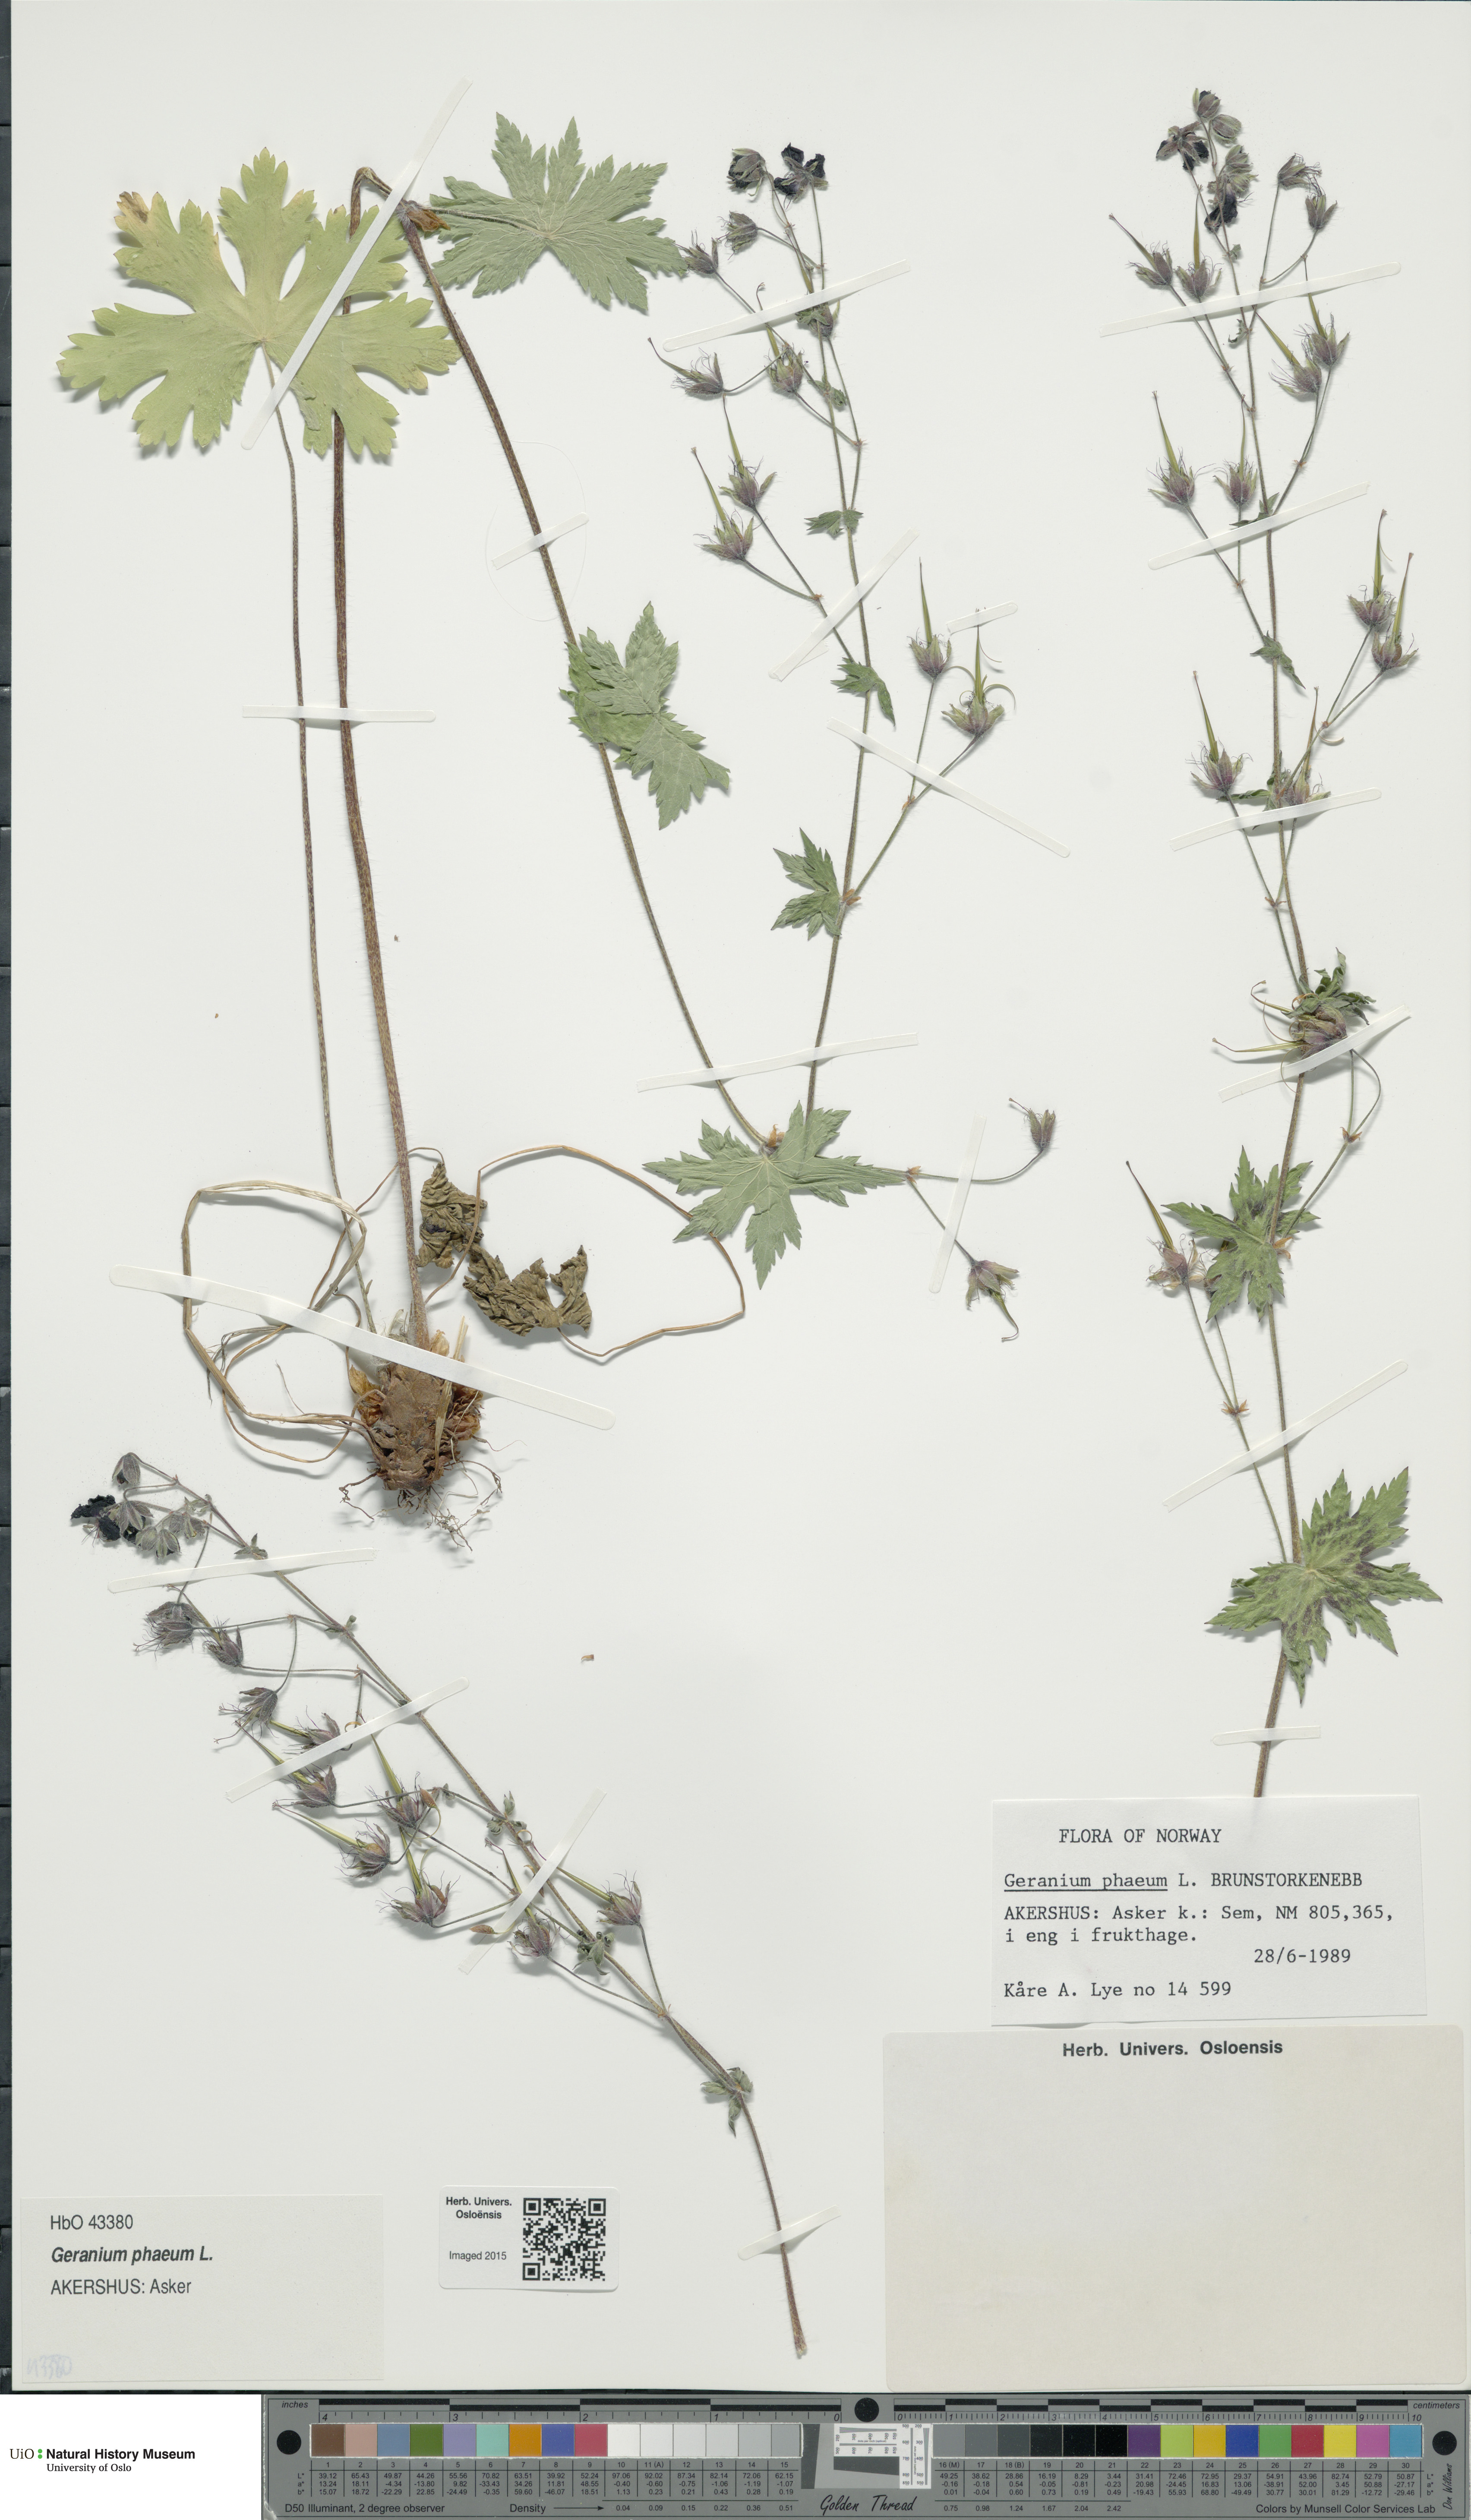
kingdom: Plantae
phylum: Tracheophyta
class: Magnoliopsida
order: Geraniales
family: Geraniaceae
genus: Geranium
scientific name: Geranium phaeum
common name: Dusky crane's-bill
